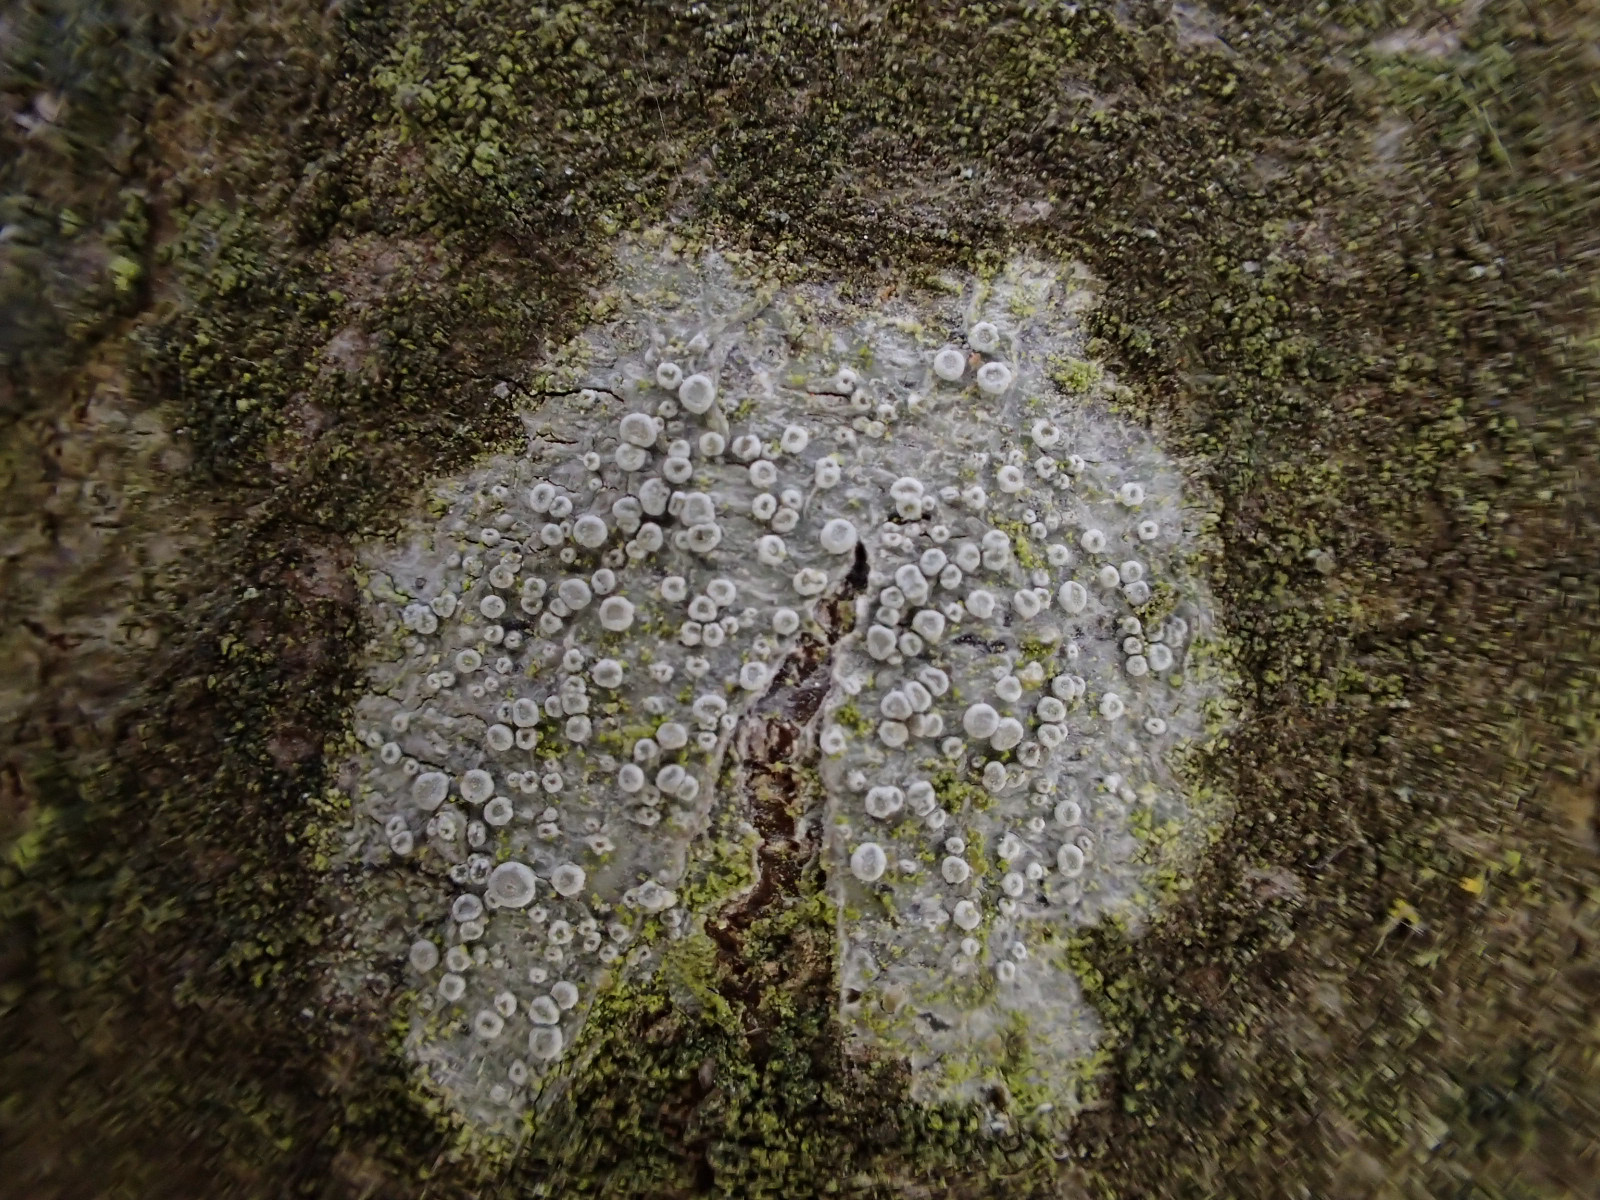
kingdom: Fungi
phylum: Ascomycota
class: Lecanoromycetes
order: Lecanorales
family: Lecanoraceae
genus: Glaucomaria
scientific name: Glaucomaria carpinea
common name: hviddugget kantskivelav
